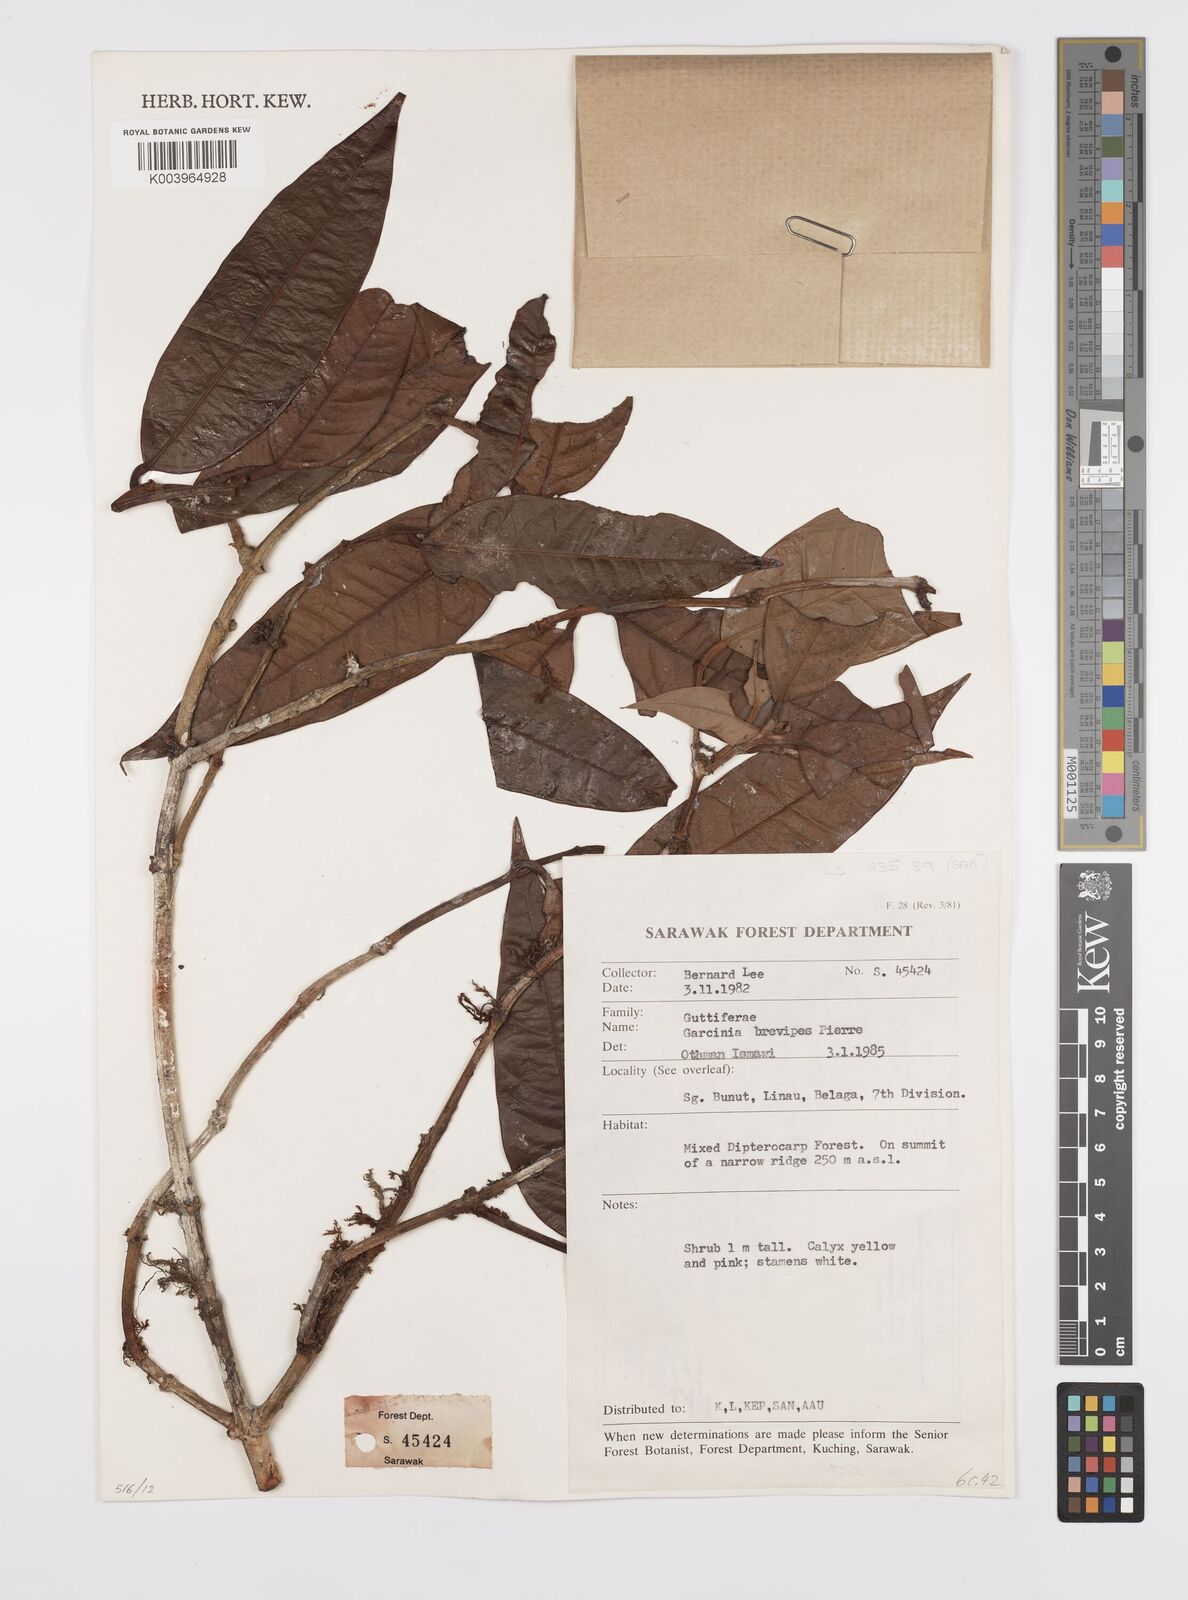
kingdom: Plantae
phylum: Tracheophyta
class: Magnoliopsida
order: Malpighiales
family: Clusiaceae
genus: Garcinia
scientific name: Garcinia brevipes
